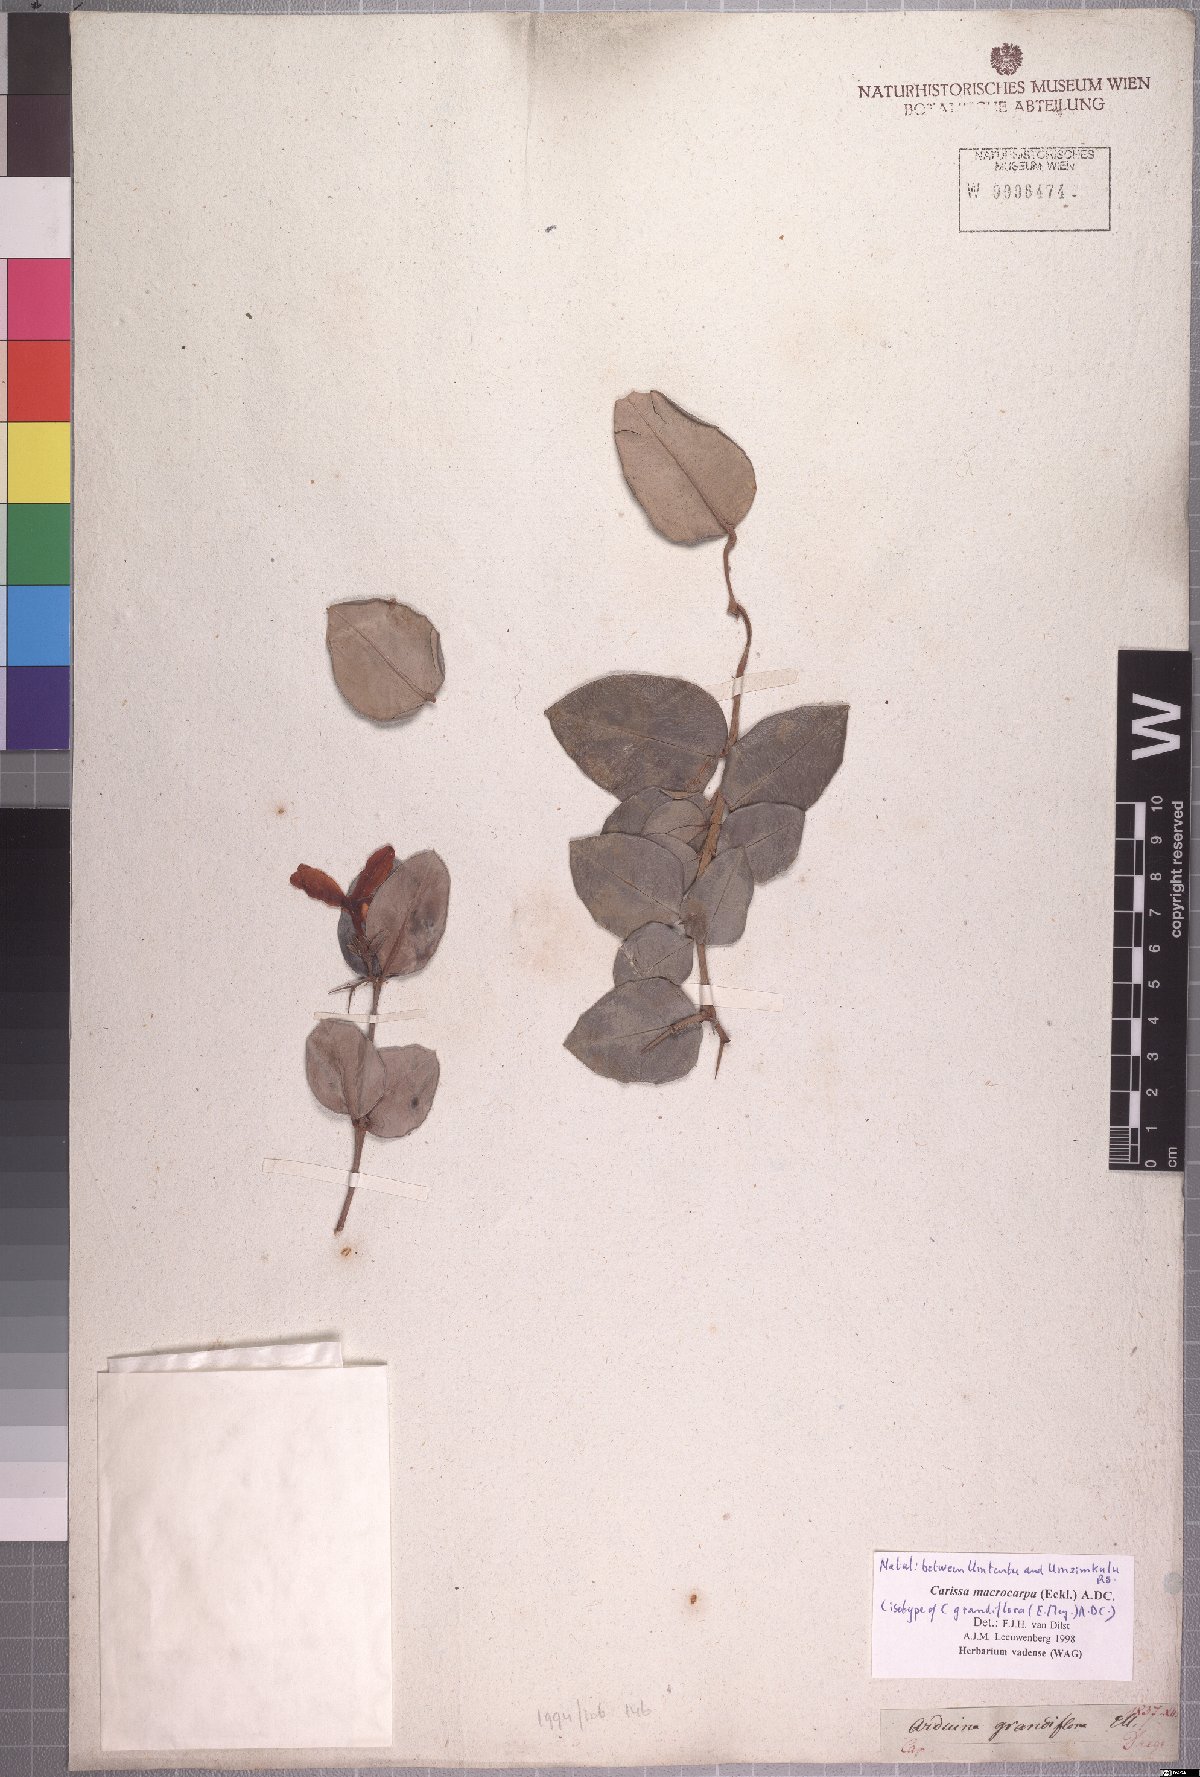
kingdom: Plantae
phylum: Tracheophyta
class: Magnoliopsida
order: Gentianales
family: Apocynaceae
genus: Carissa
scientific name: Carissa macrocarpa
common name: Natal plum
